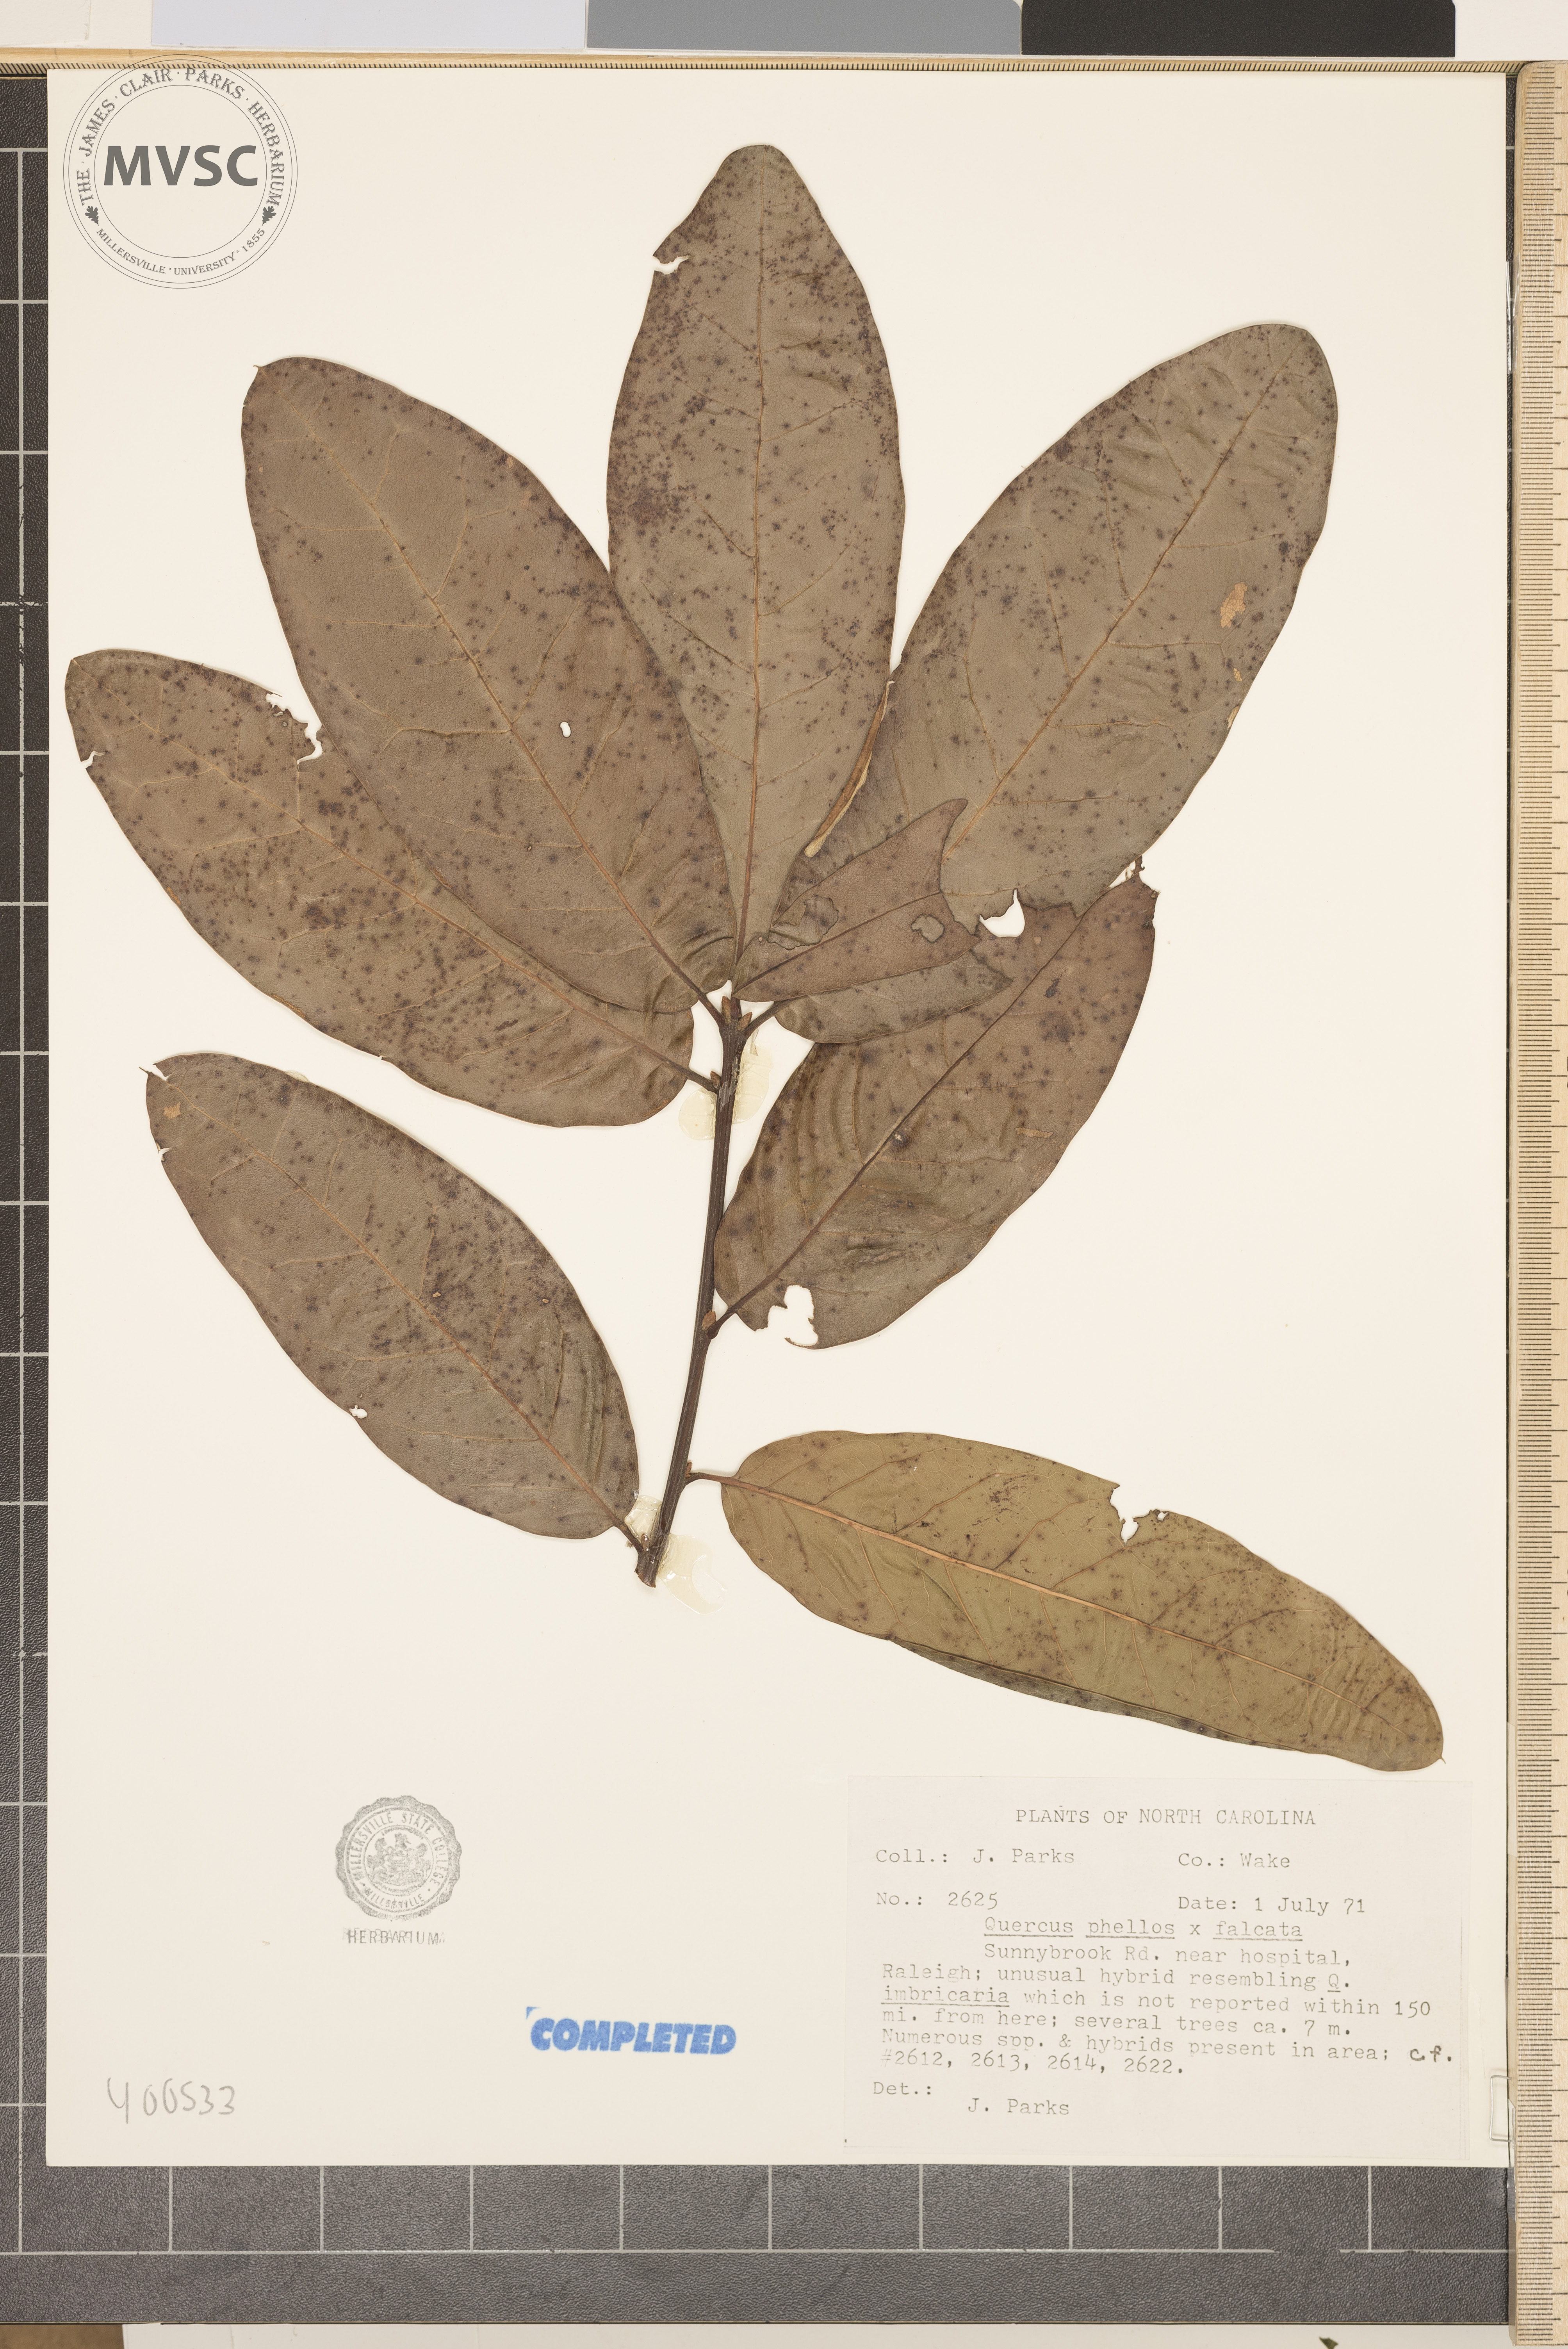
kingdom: Plantae
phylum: Tracheophyta
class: Magnoliopsida
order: Fagales
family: Fagaceae
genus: Quercus
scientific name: Quercus
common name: oak
